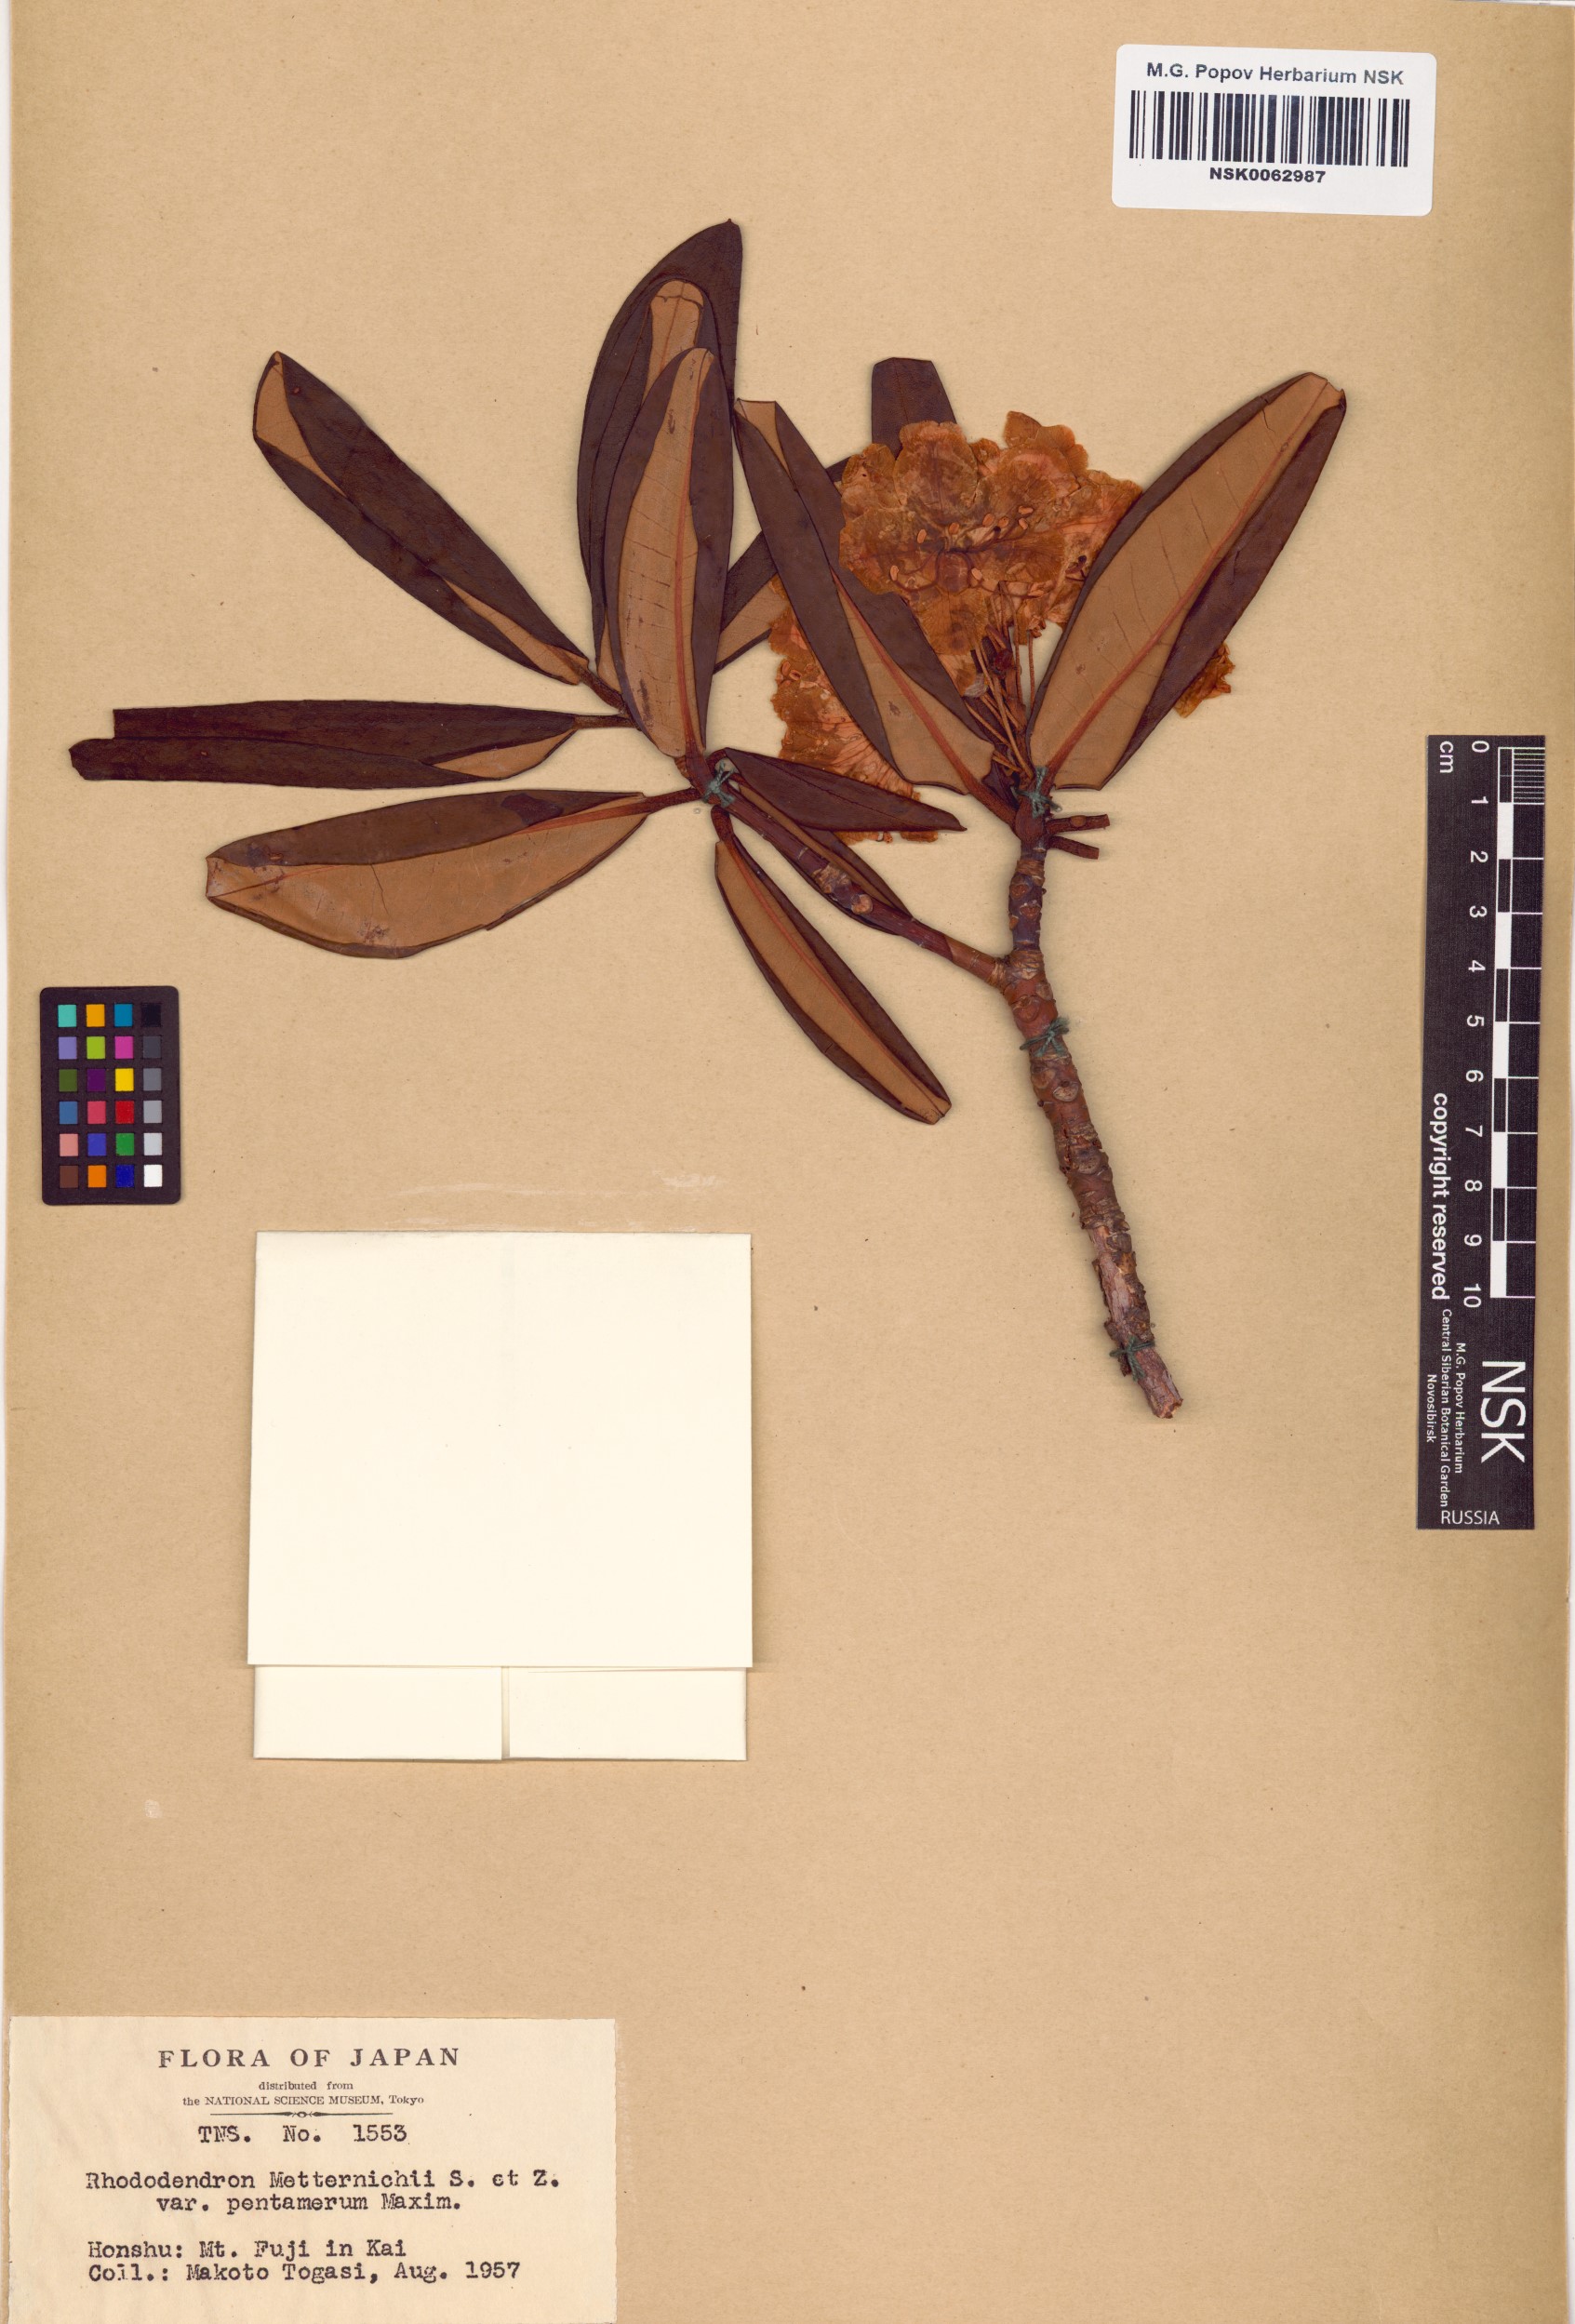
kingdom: Plantae
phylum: Tracheophyta
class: Magnoliopsida
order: Ericales
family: Ericaceae
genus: Rhododendron
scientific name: Rhododendron degronianum
